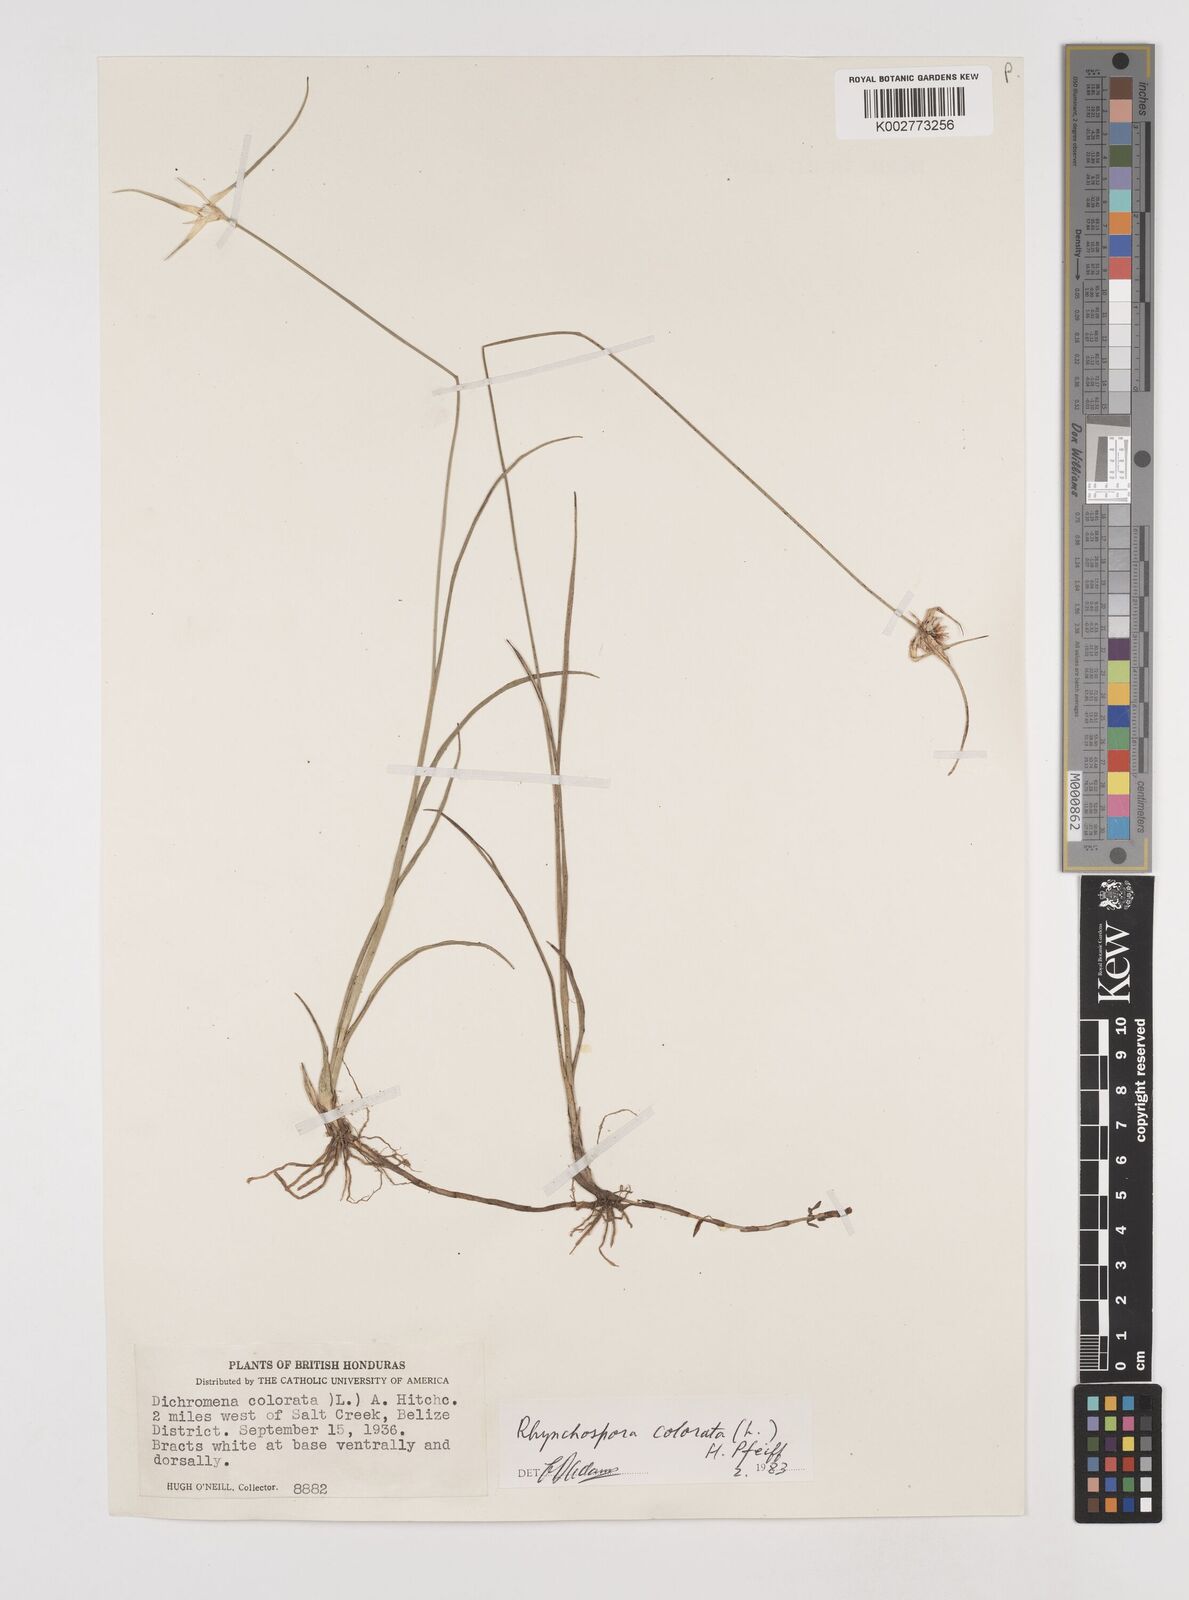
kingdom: Plantae
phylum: Tracheophyta
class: Liliopsida
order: Poales
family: Cyperaceae
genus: Rhynchospora
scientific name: Rhynchospora colorata
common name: Star sedge
